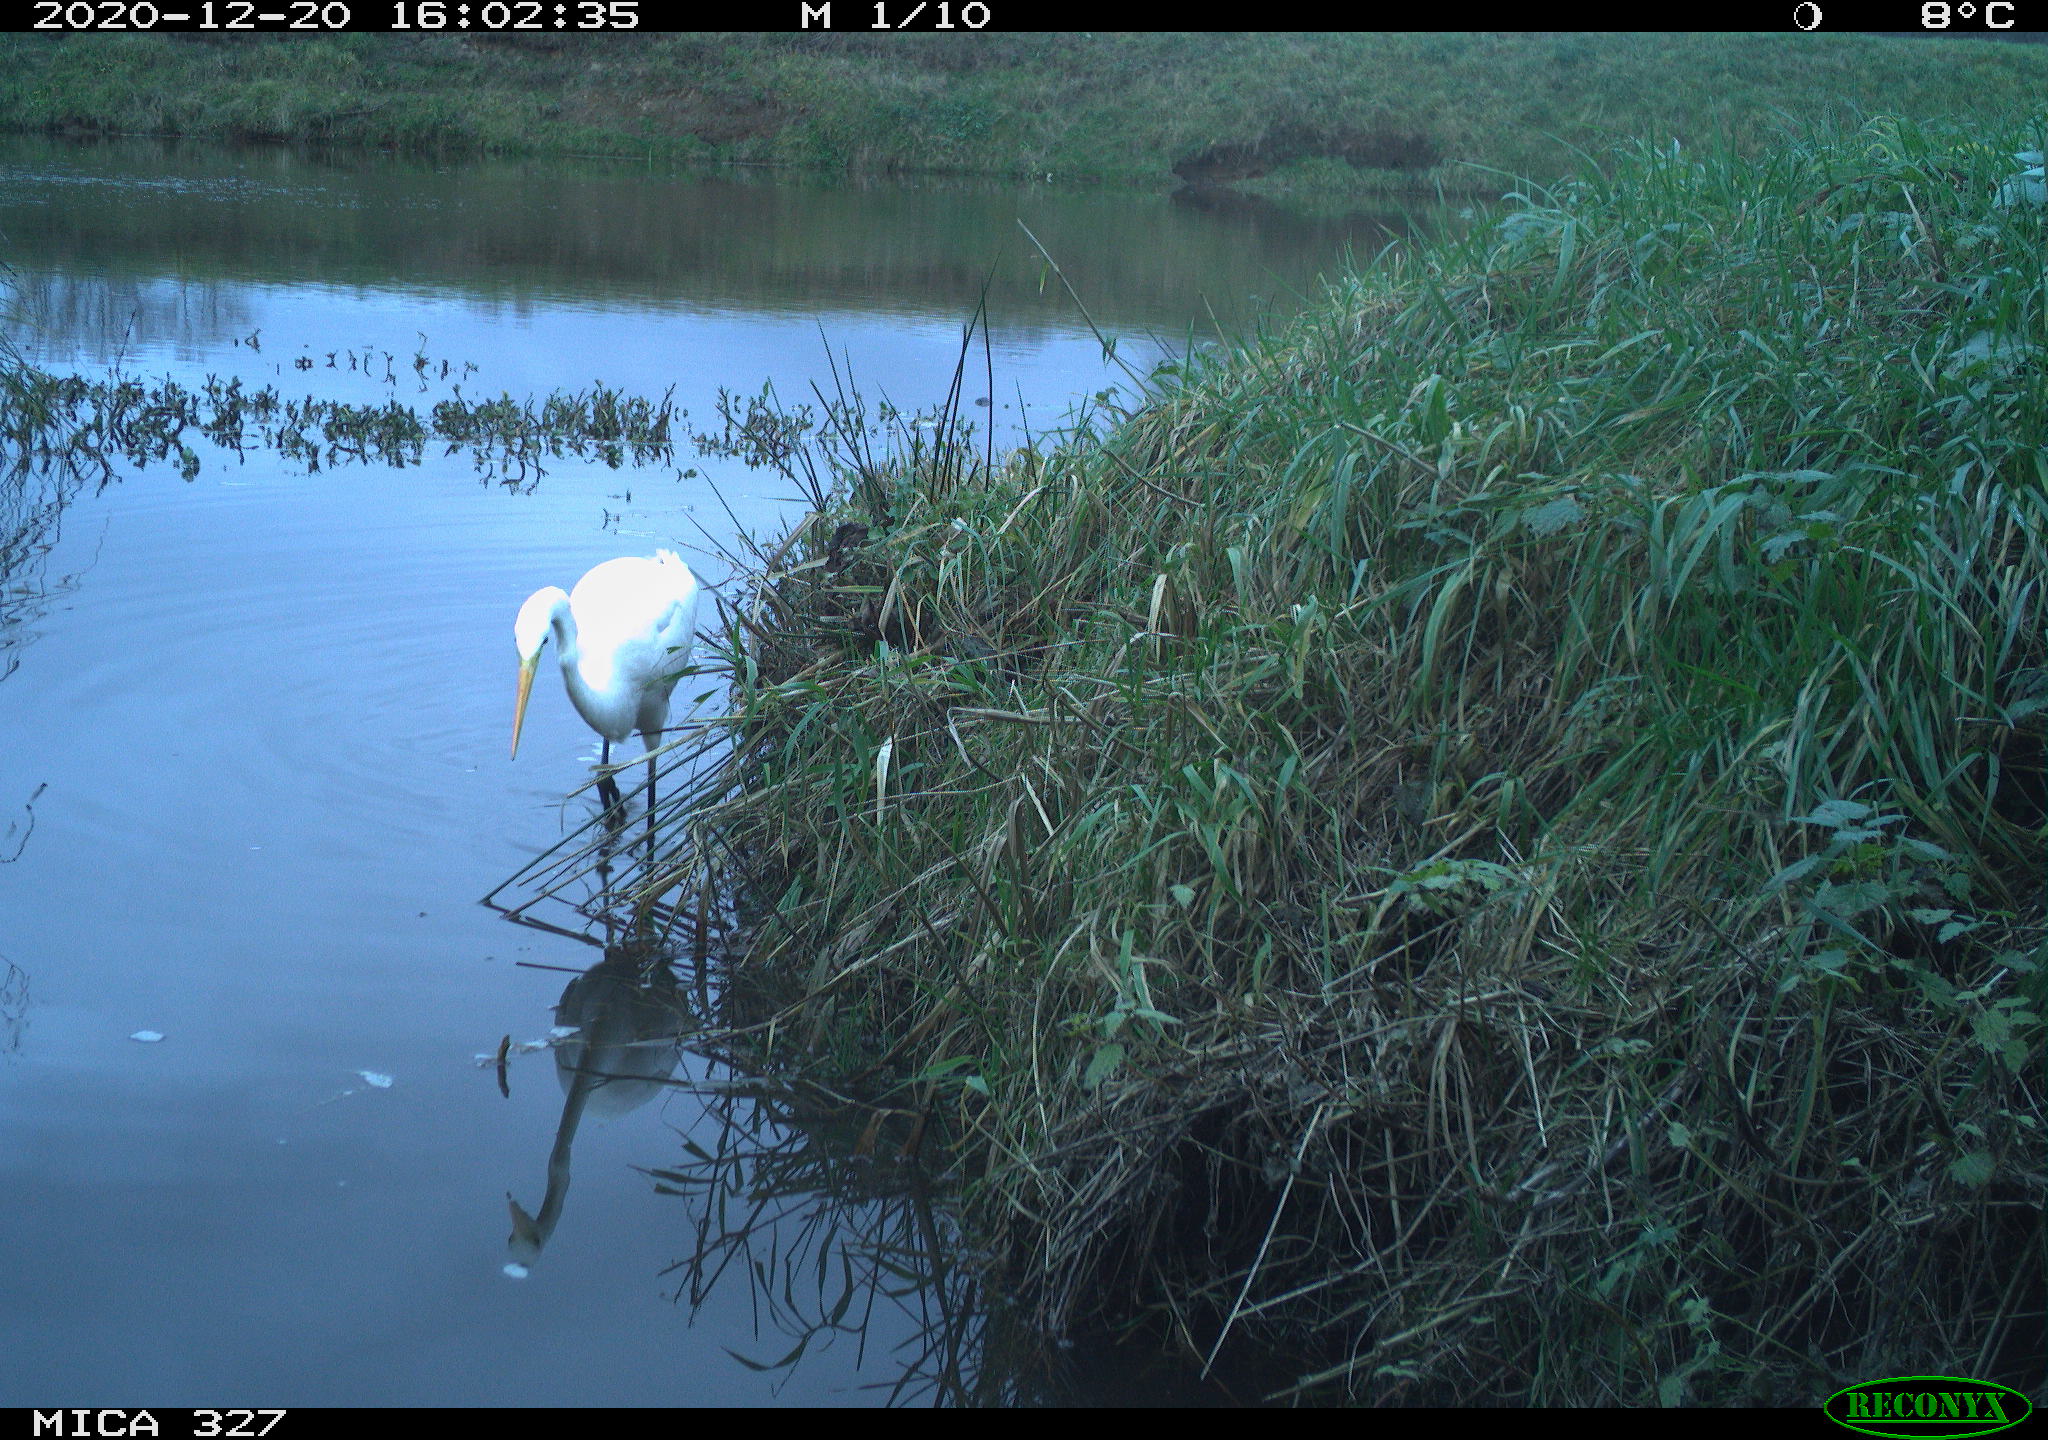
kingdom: Animalia
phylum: Chordata
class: Aves
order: Pelecaniformes
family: Ardeidae
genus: Ardea
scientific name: Ardea alba
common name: Great egret
